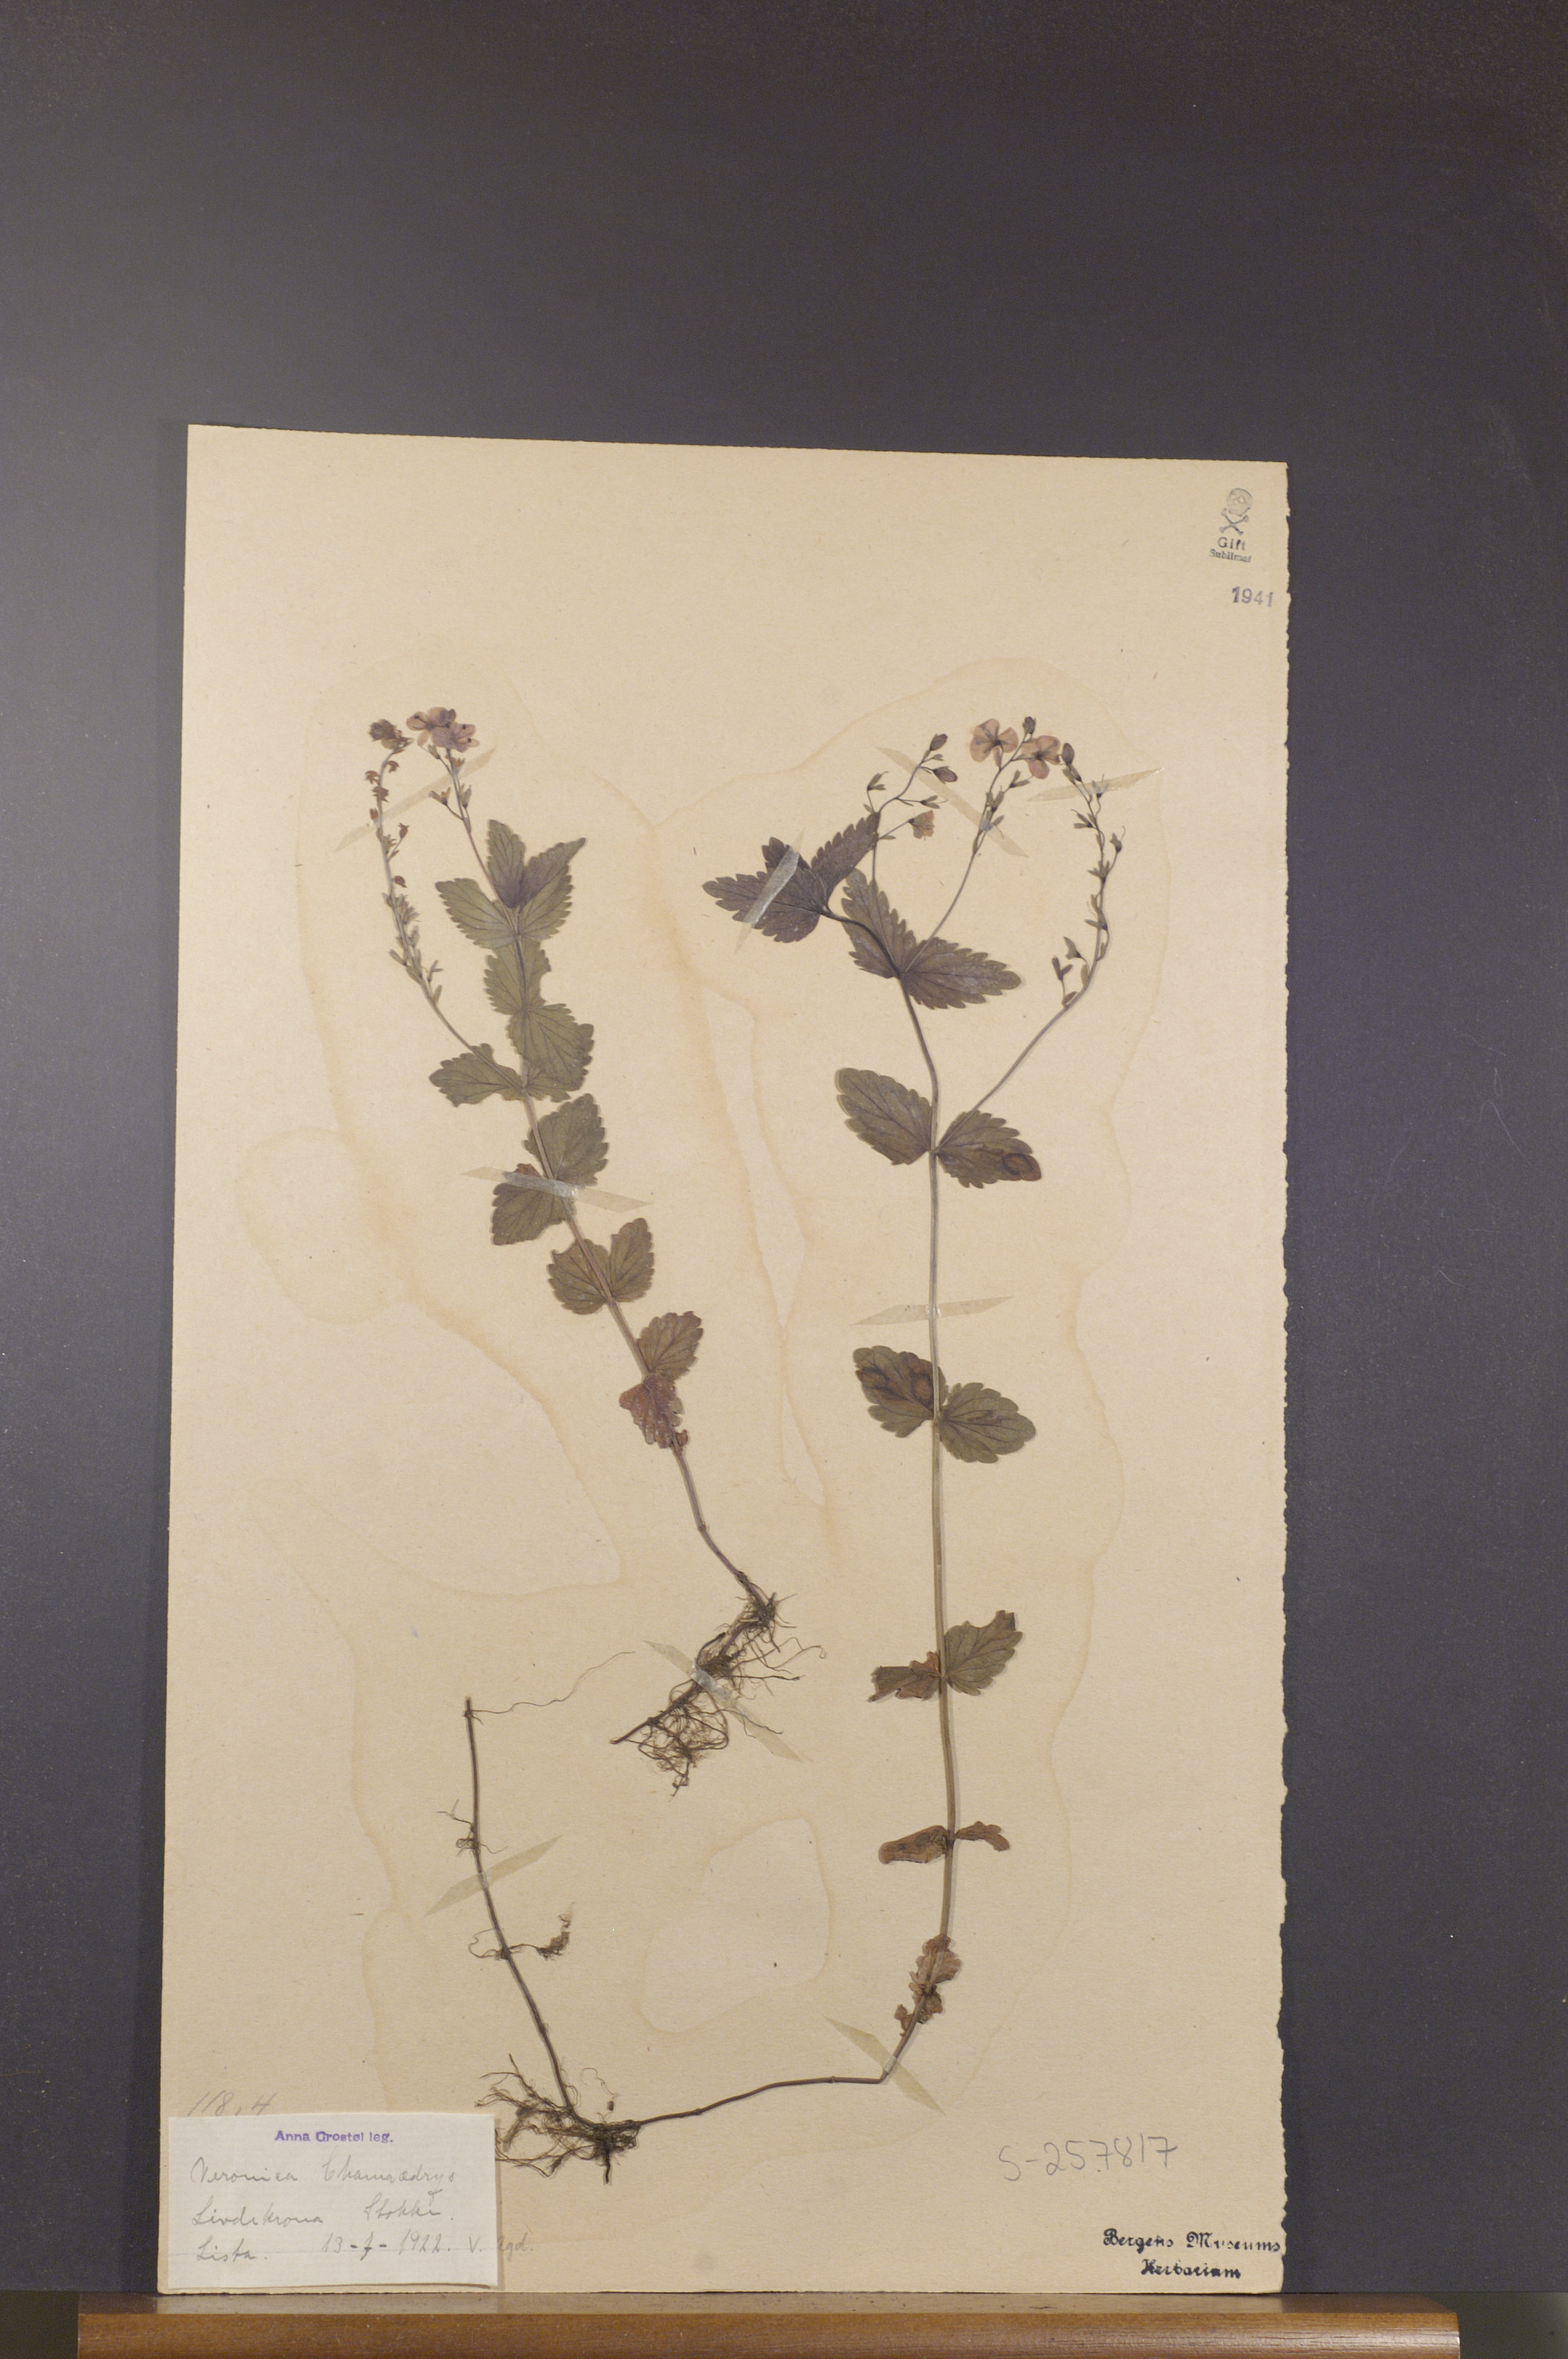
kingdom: Plantae
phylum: Tracheophyta
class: Magnoliopsida
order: Lamiales
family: Plantaginaceae
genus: Veronica
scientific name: Veronica chamaedrys
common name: Germander speedwell
